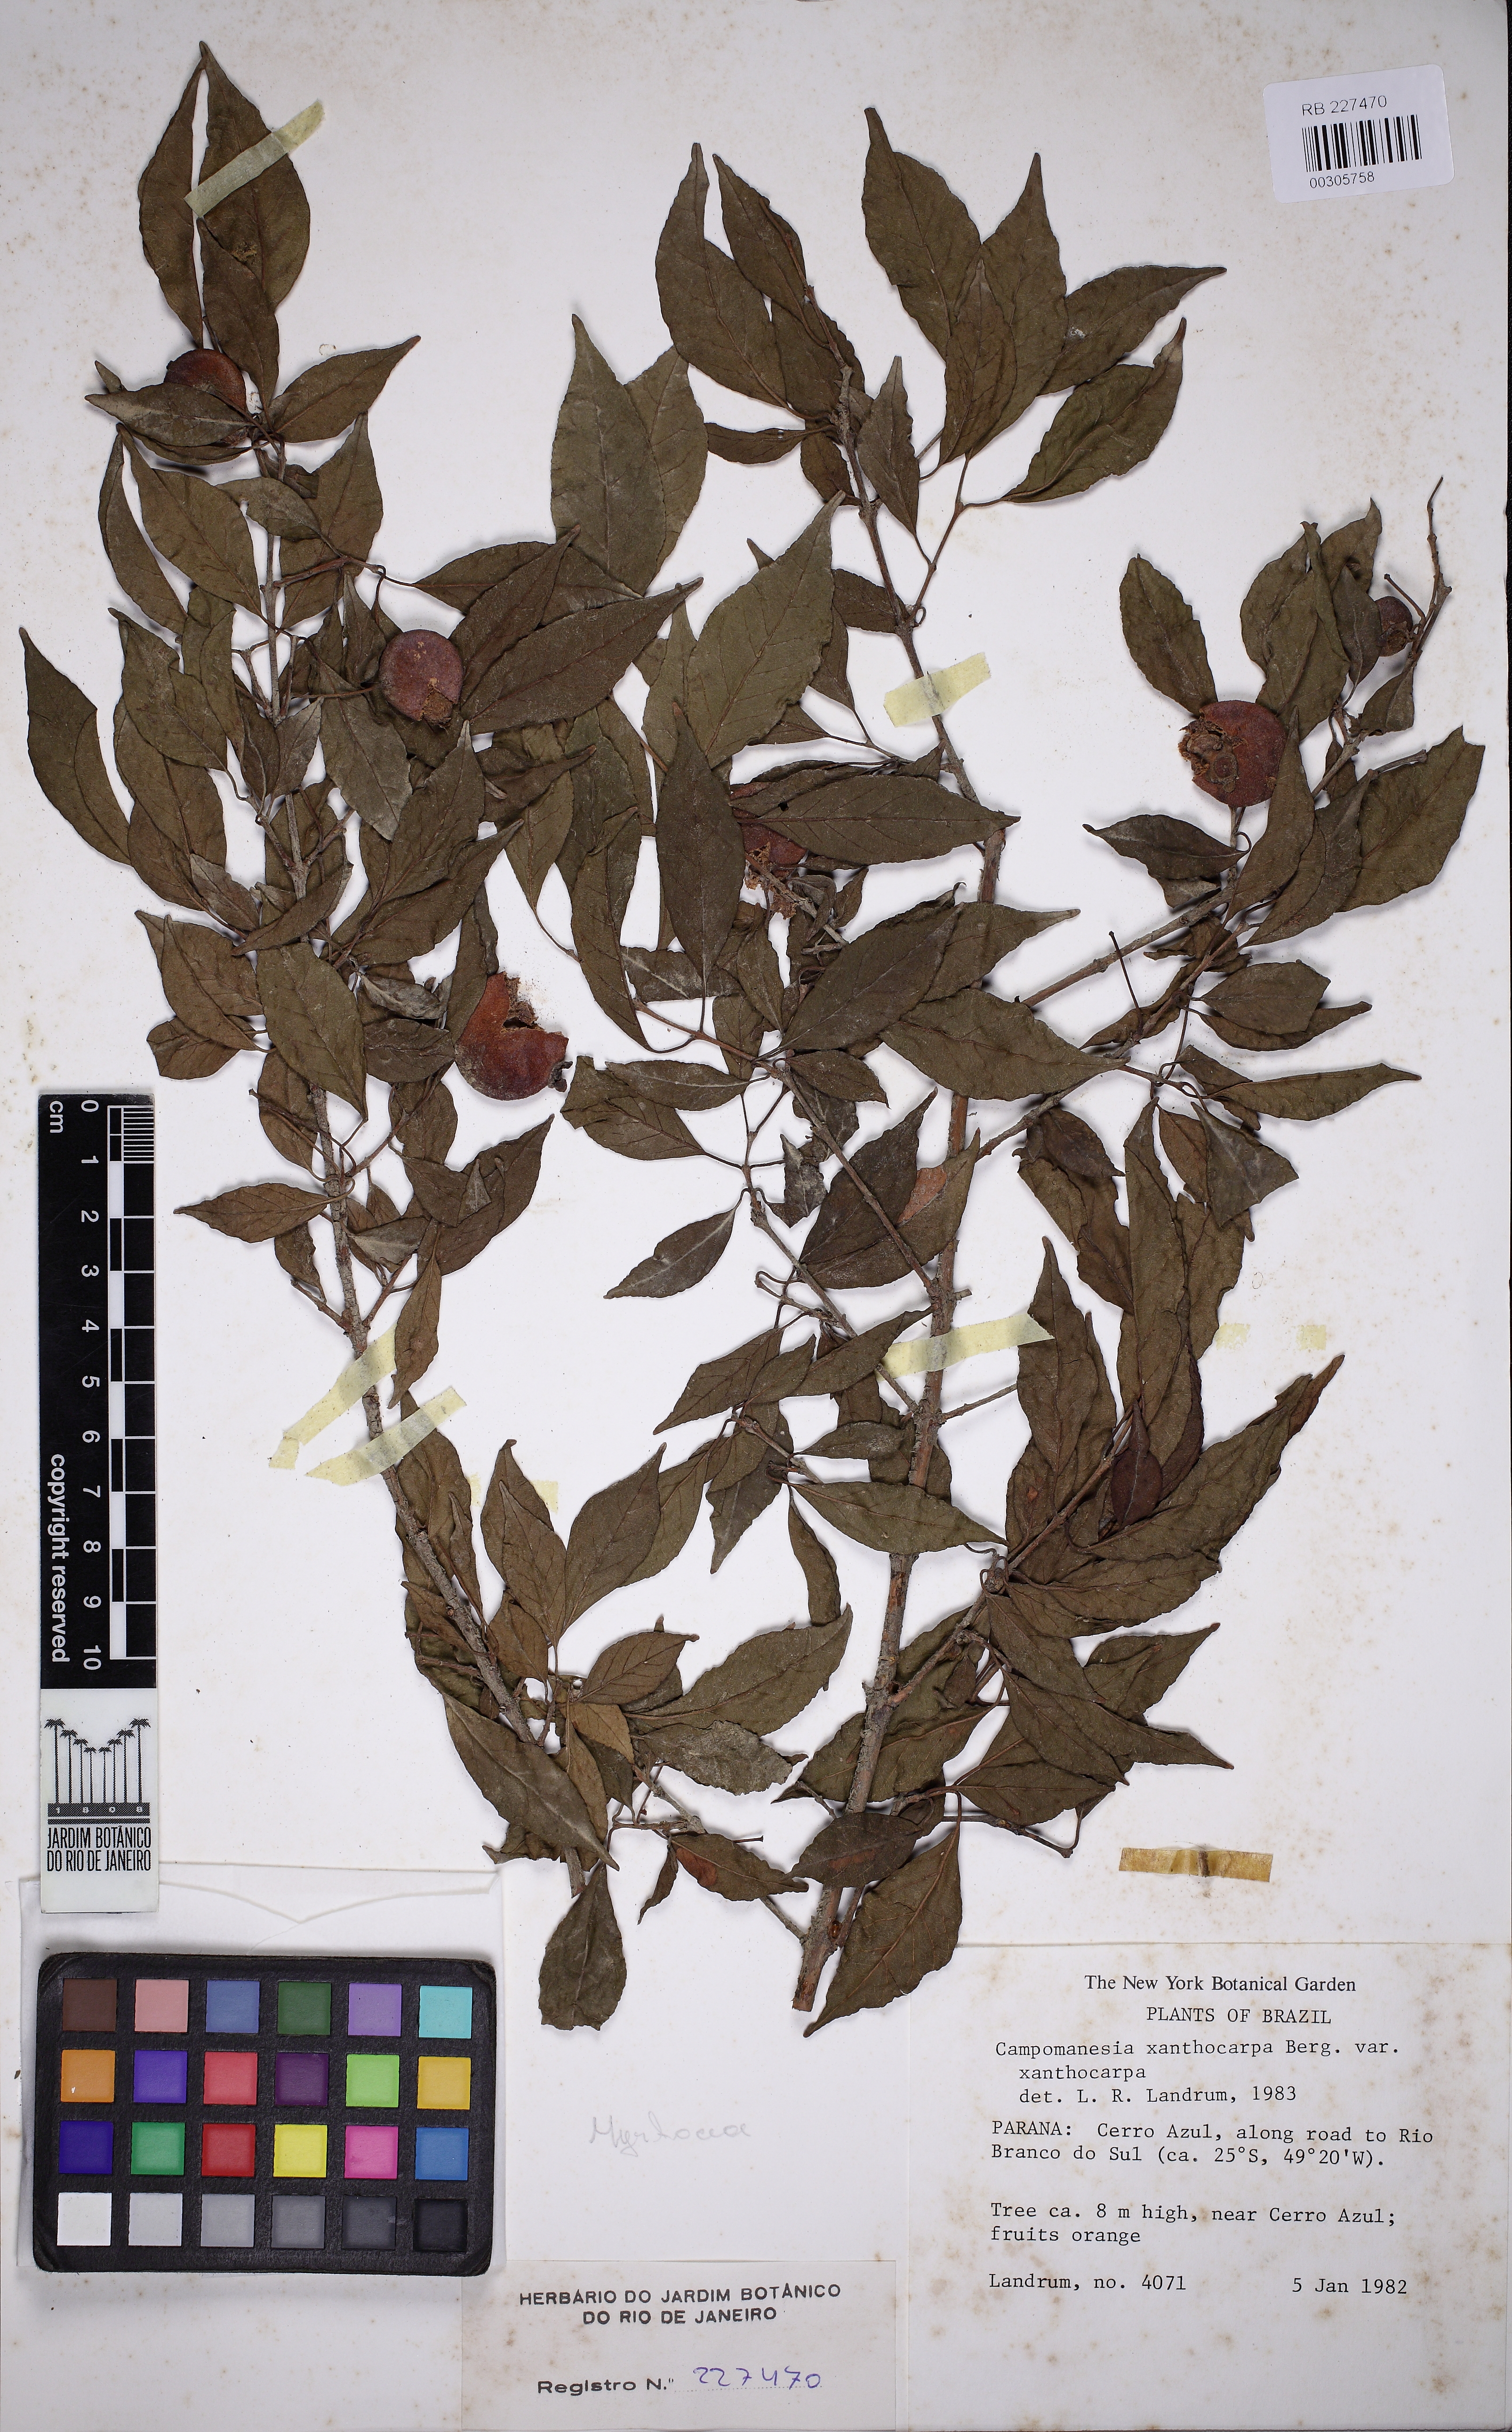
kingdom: Plantae
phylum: Tracheophyta
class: Magnoliopsida
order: Myrtales
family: Myrtaceae
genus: Campomanesia
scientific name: Campomanesia xanthocarpa
